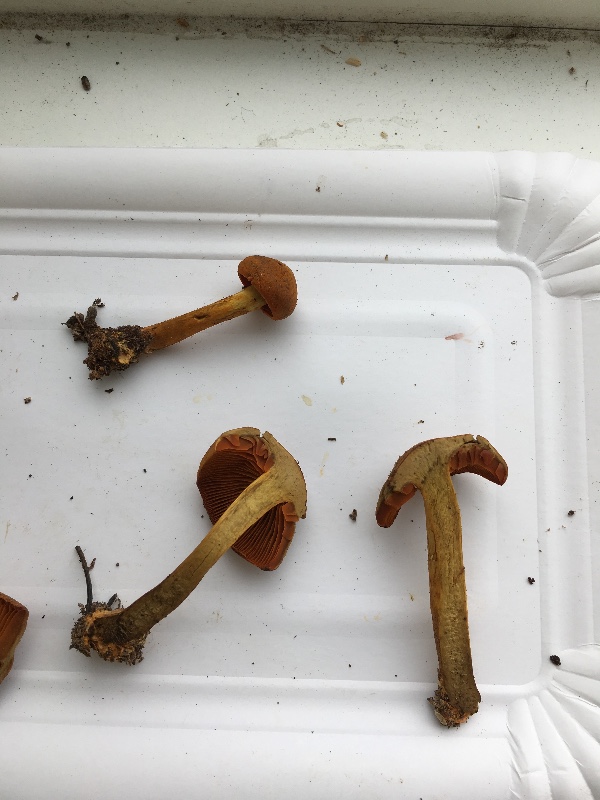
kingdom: Fungi
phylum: Basidiomycota
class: Agaricomycetes
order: Agaricales
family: Cortinariaceae
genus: Cortinarius
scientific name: Cortinarius malicorius
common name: grønkødet slørhat
